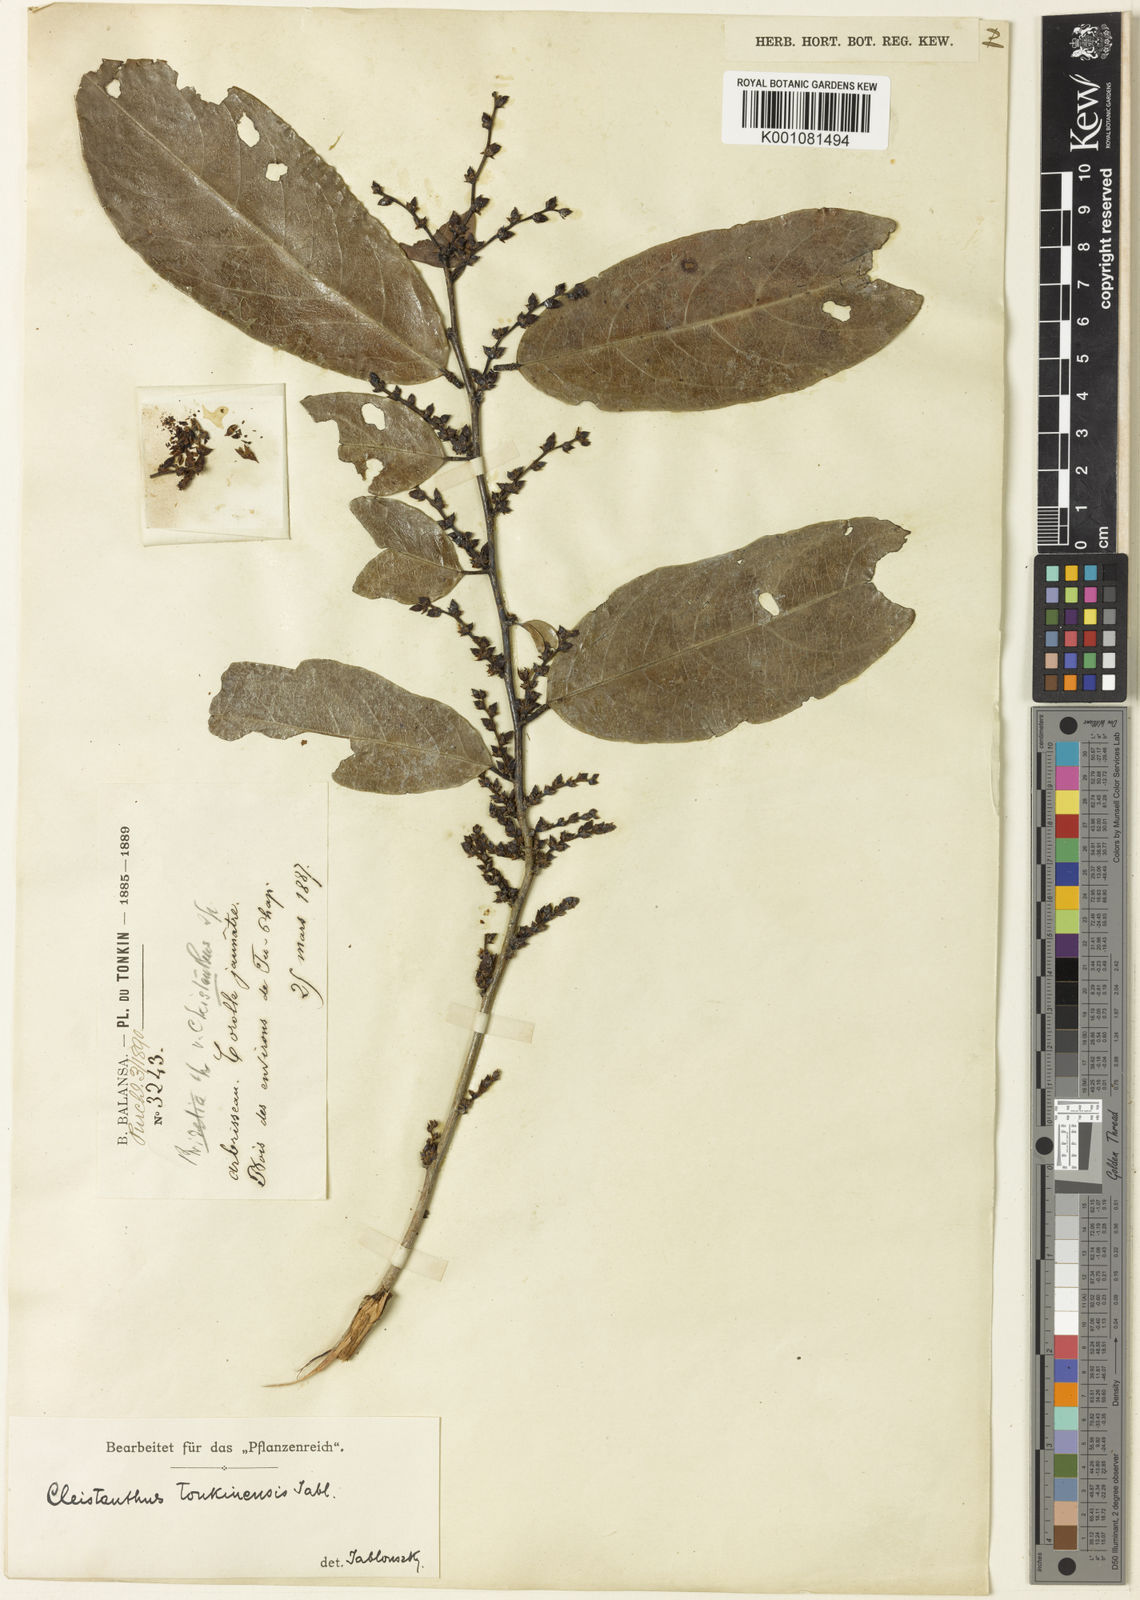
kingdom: Plantae
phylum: Tracheophyta
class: Magnoliopsida
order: Malpighiales
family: Phyllanthaceae
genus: Cleistanthus
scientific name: Cleistanthus tonkinensis
